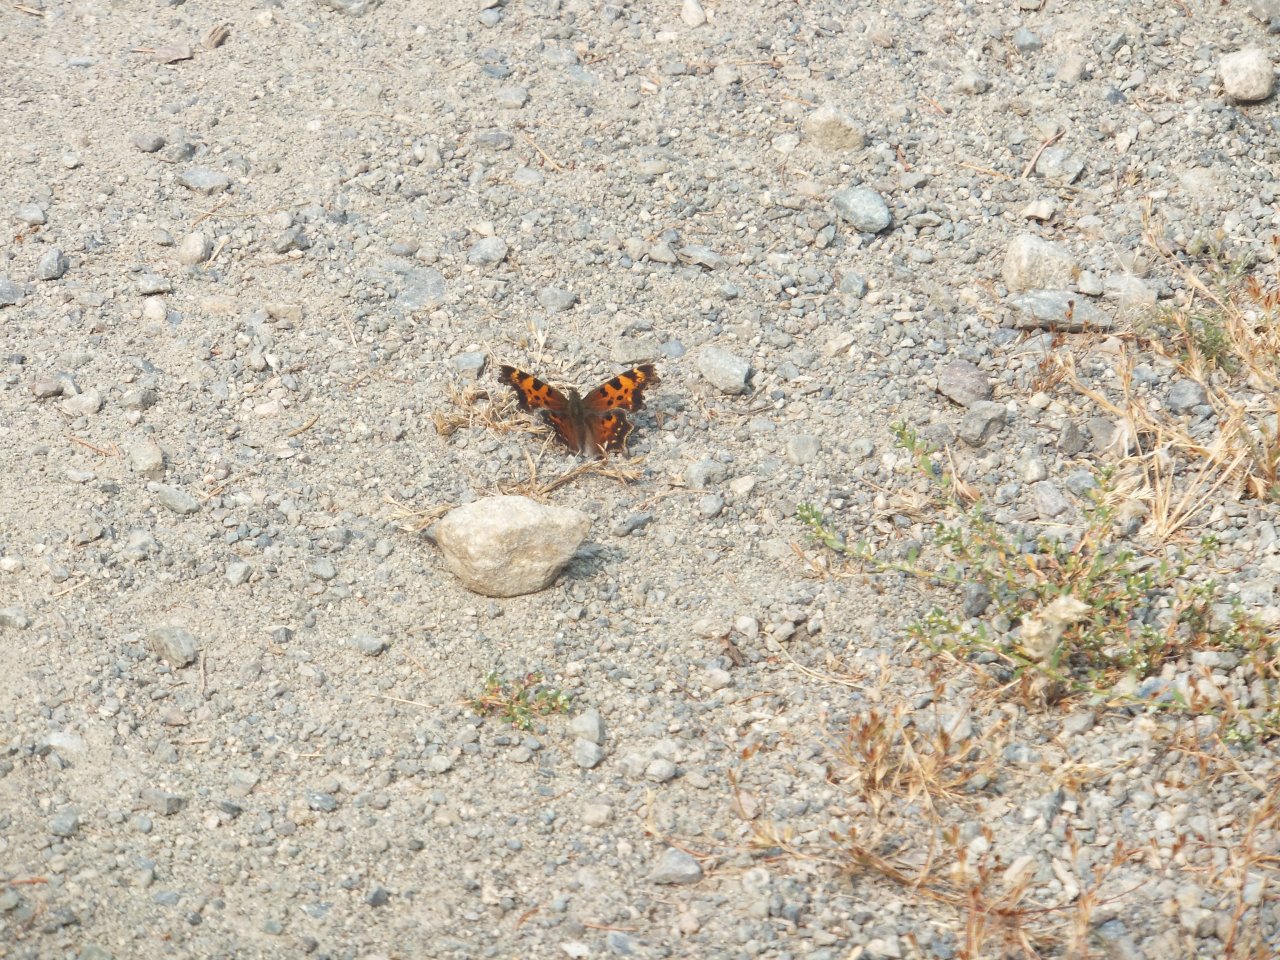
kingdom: Animalia
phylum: Arthropoda
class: Insecta
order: Lepidoptera
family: Nymphalidae
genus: Polygonia
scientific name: Polygonia faunus
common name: Green Comma
